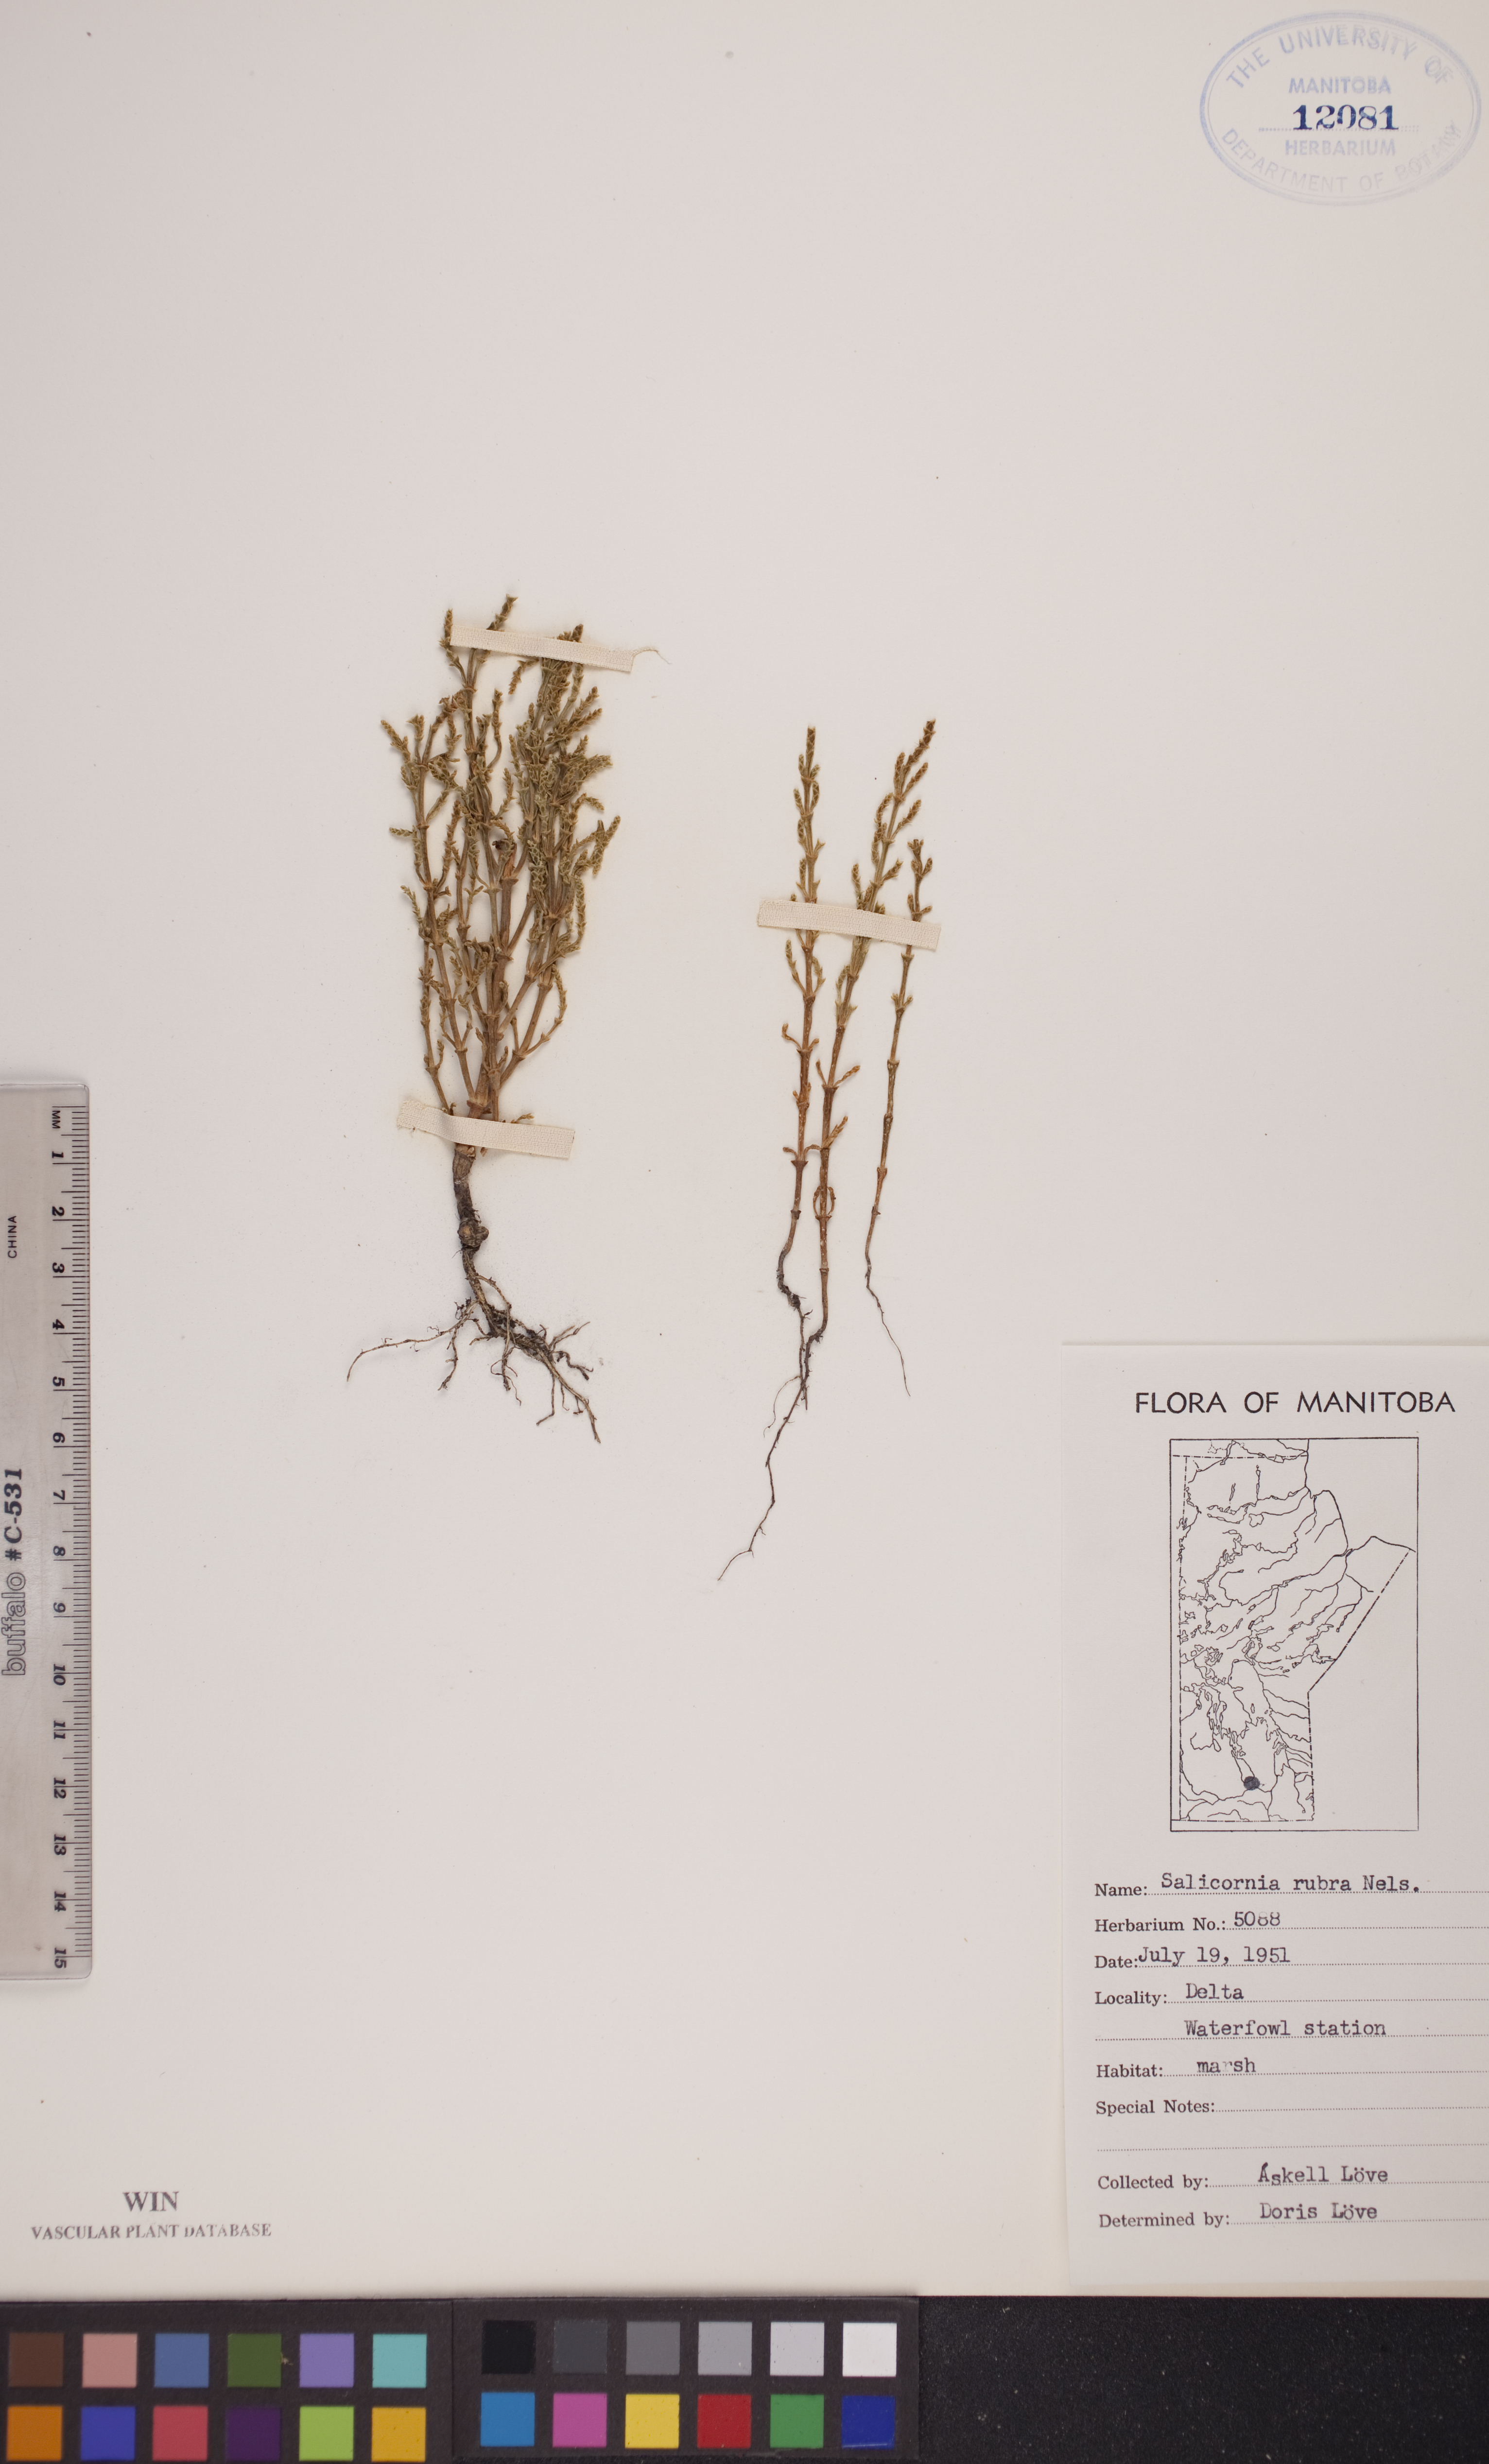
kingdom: Plantae
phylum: Tracheophyta
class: Magnoliopsida
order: Caryophyllales
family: Amaranthaceae
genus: Salicornia
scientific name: Salicornia rubra
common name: Red glasswort
